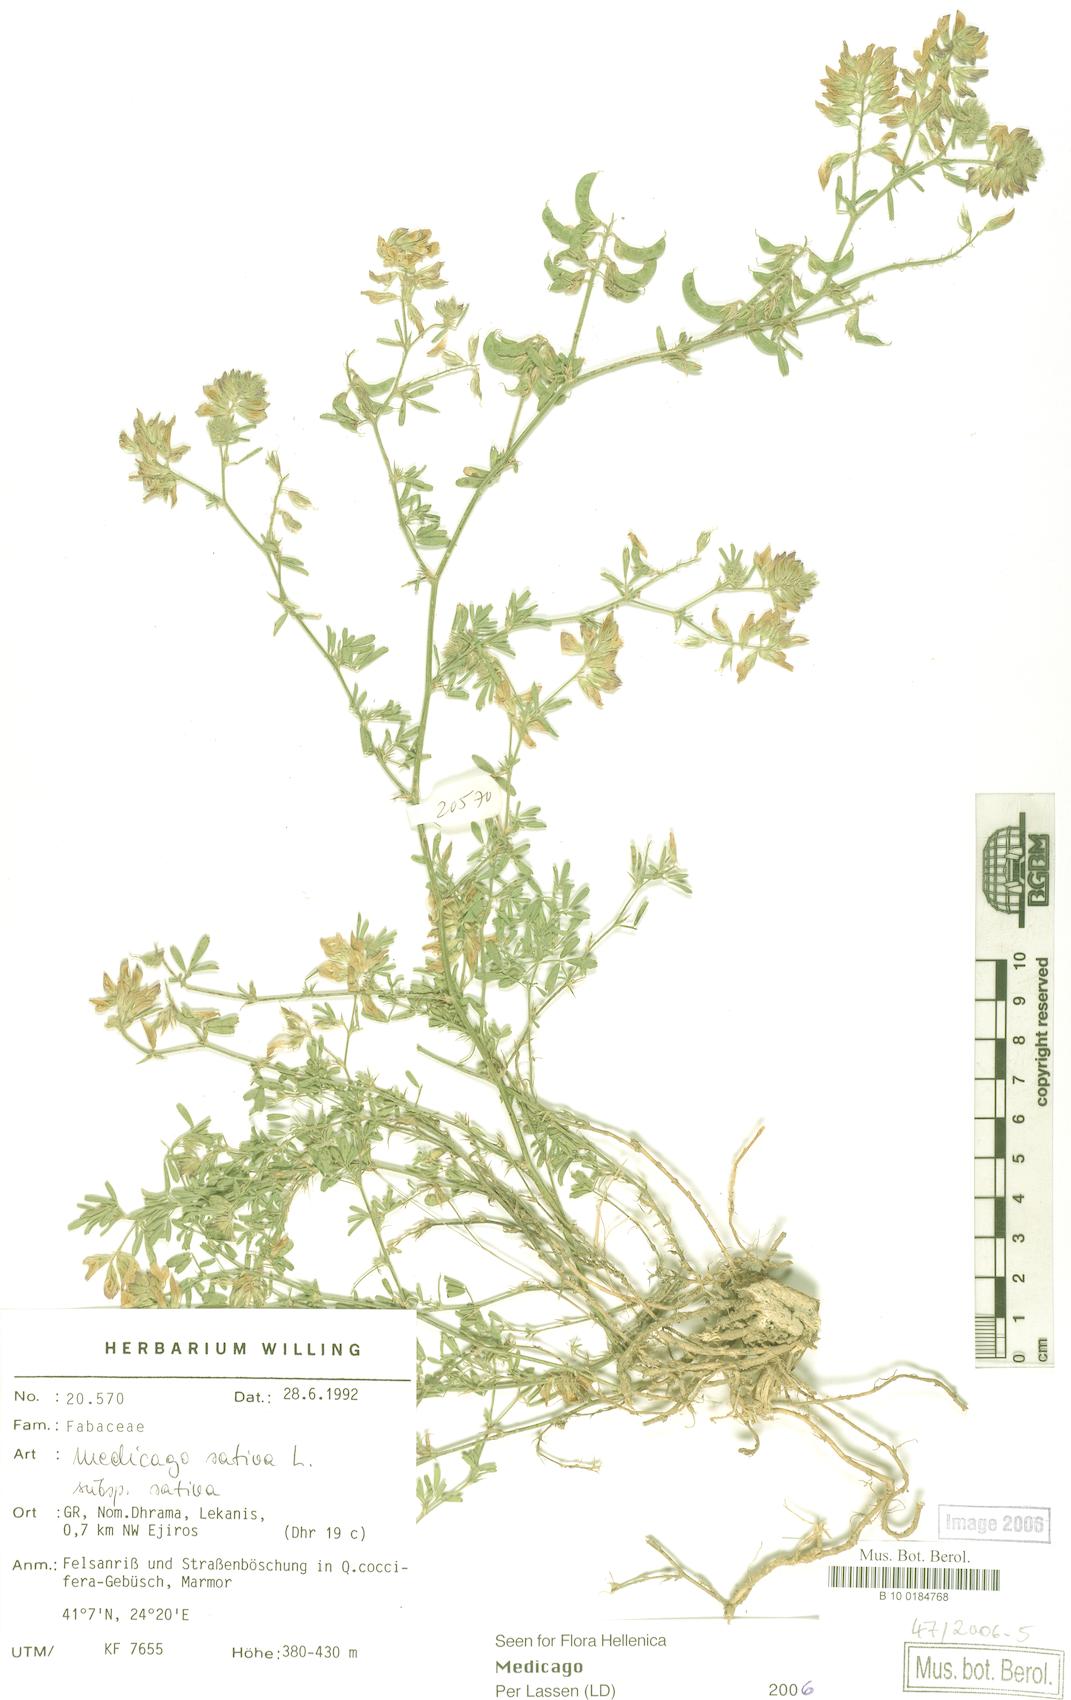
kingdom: Plantae
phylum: Tracheophyta
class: Magnoliopsida
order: Fabales
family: Fabaceae
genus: Medicago
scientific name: Medicago sativa
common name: Alfalfa
